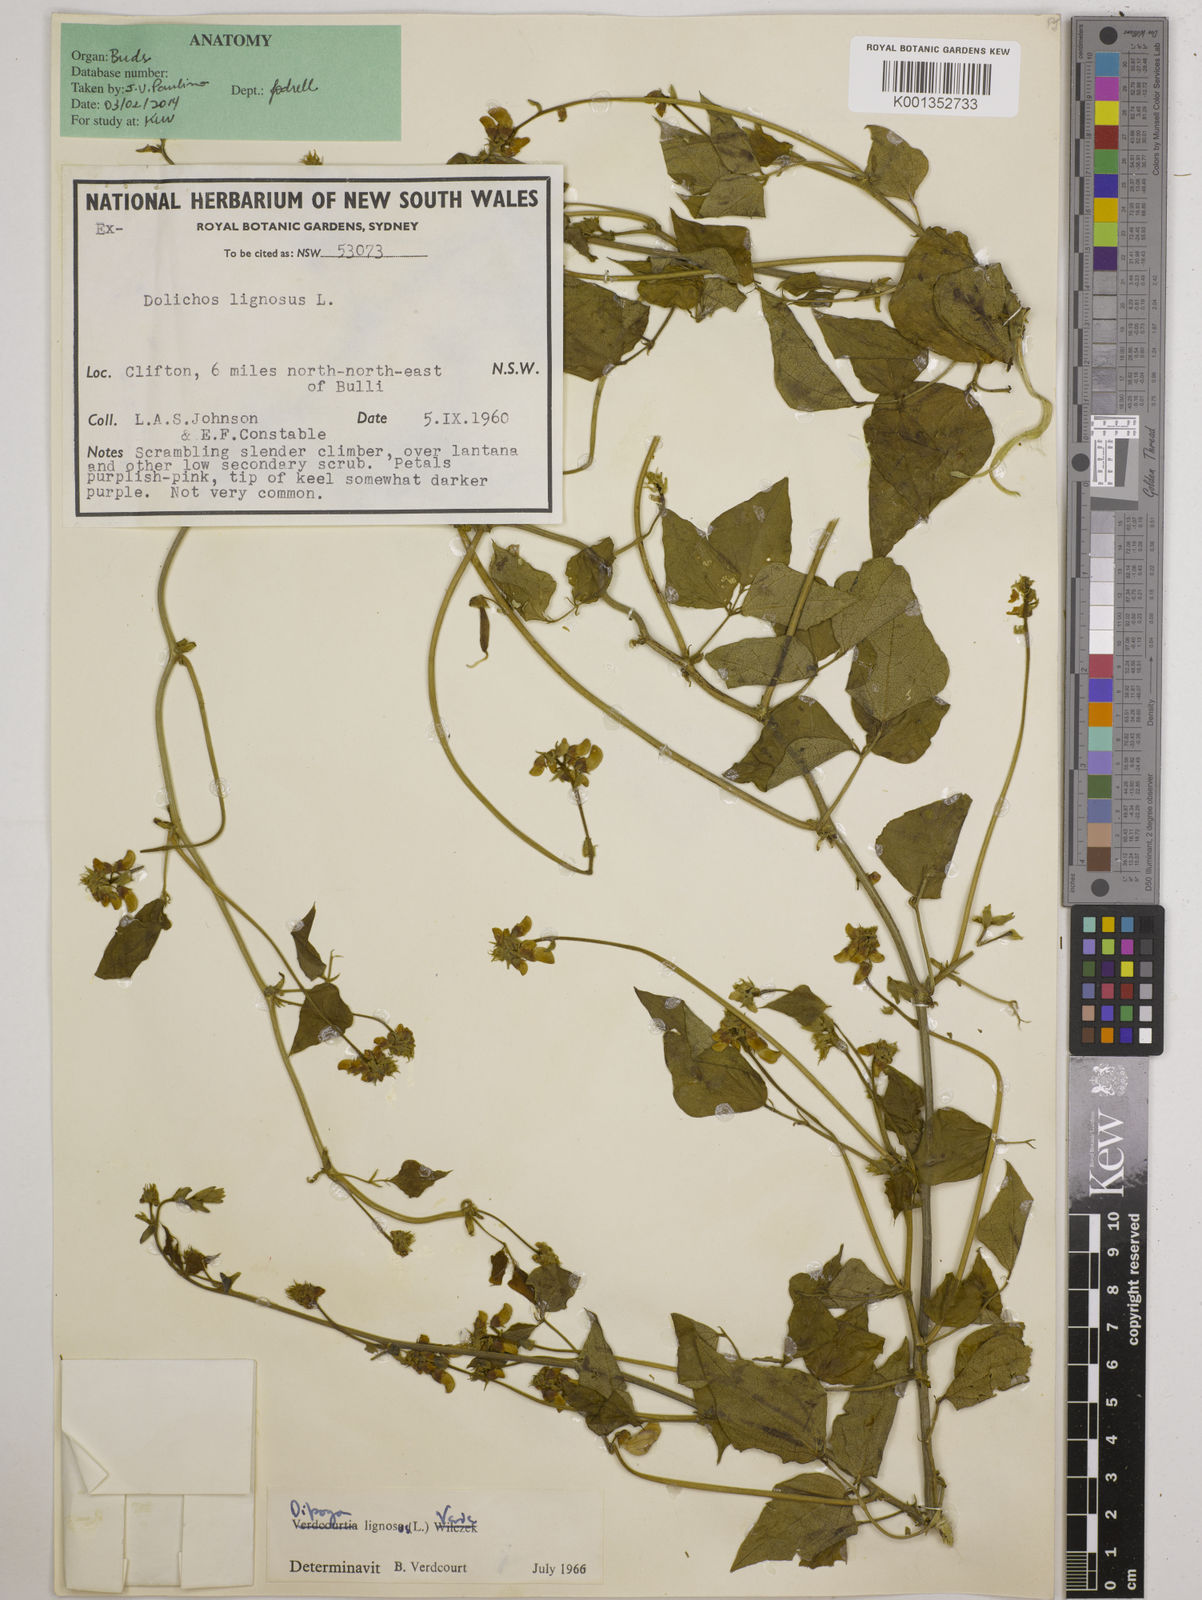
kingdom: Plantae
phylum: Tracheophyta
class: Magnoliopsida
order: Fabales
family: Fabaceae
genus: Dipogon
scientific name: Dipogon lignosus
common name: Okie bean
